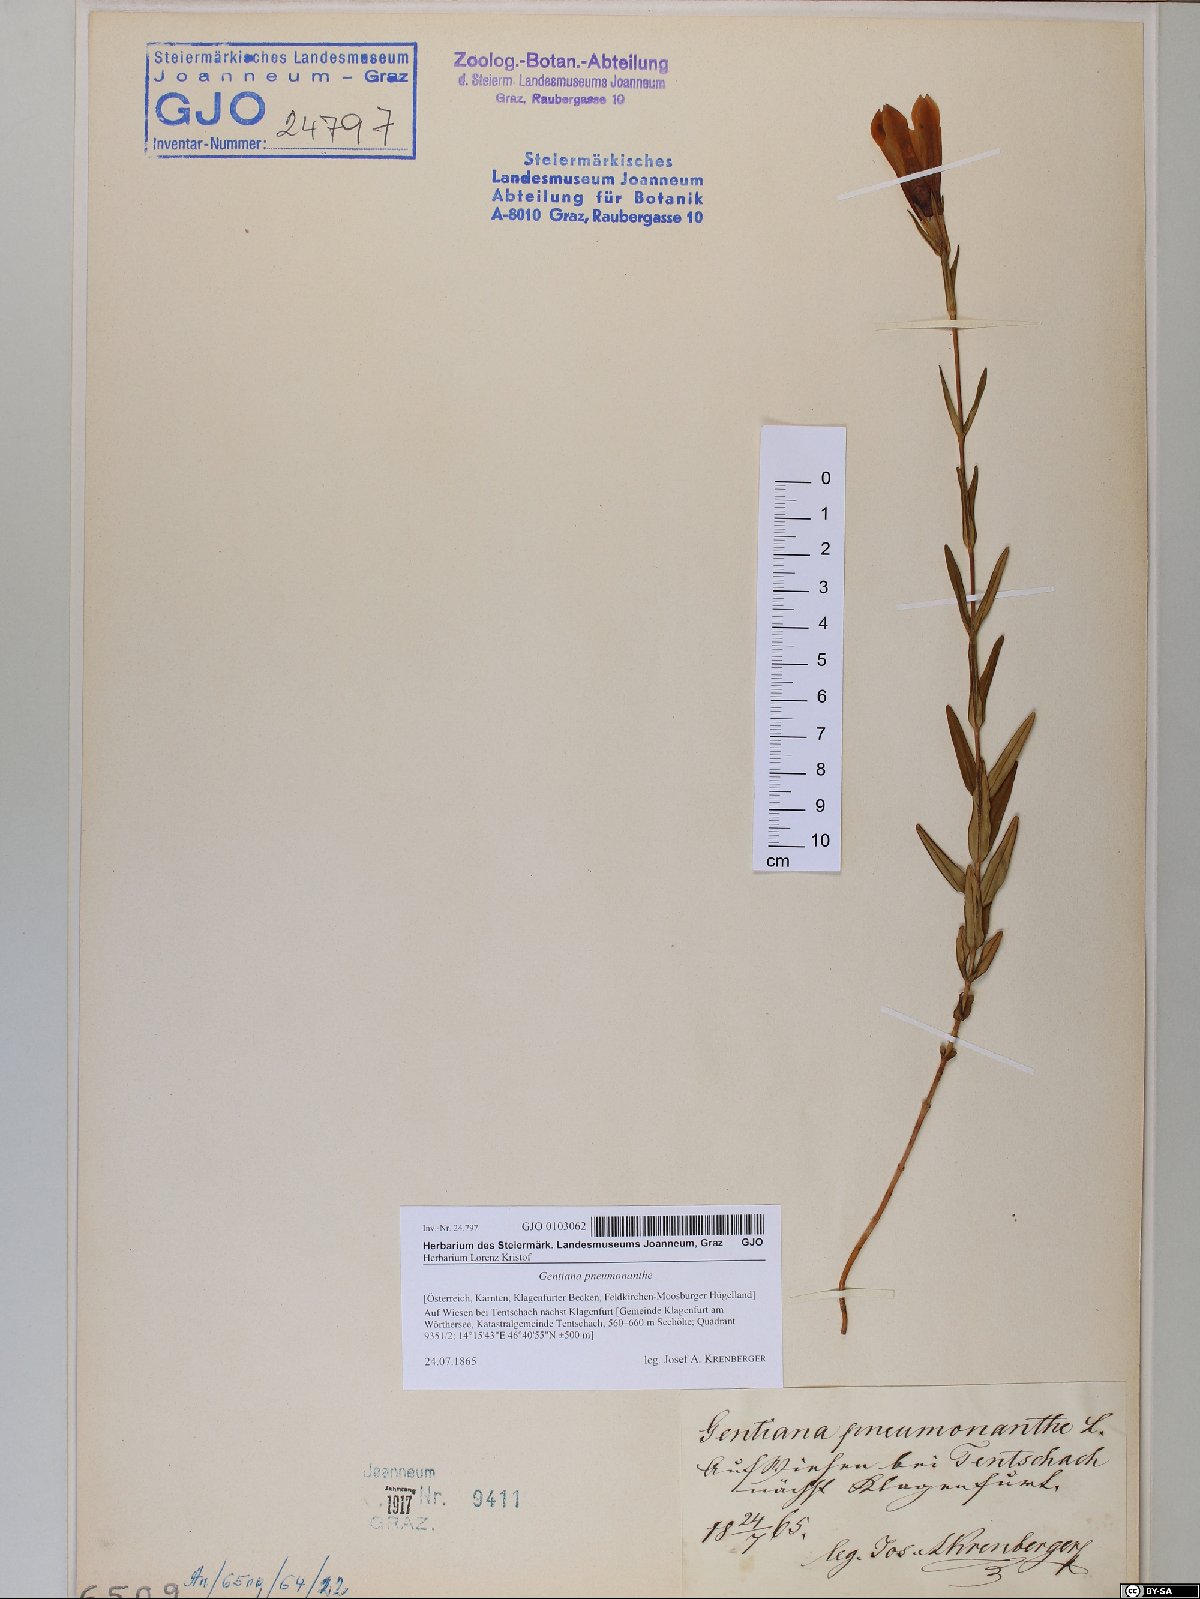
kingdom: Plantae
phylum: Tracheophyta
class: Magnoliopsida
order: Gentianales
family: Gentianaceae
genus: Gentiana
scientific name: Gentiana pneumonanthe
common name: Marsh gentian
